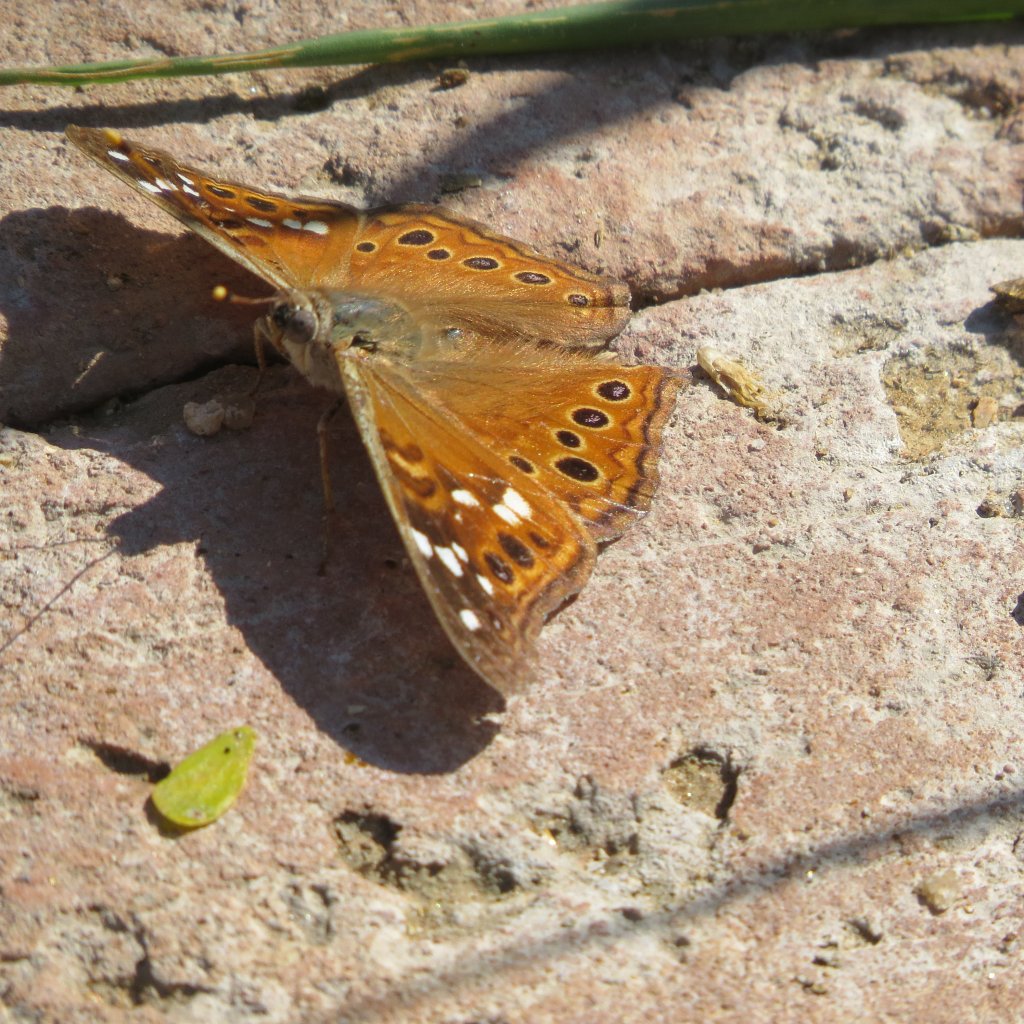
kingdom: Animalia
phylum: Arthropoda
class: Insecta
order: Lepidoptera
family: Nymphalidae
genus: Asterocampa
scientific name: Asterocampa leilia
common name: Empress Leilia
